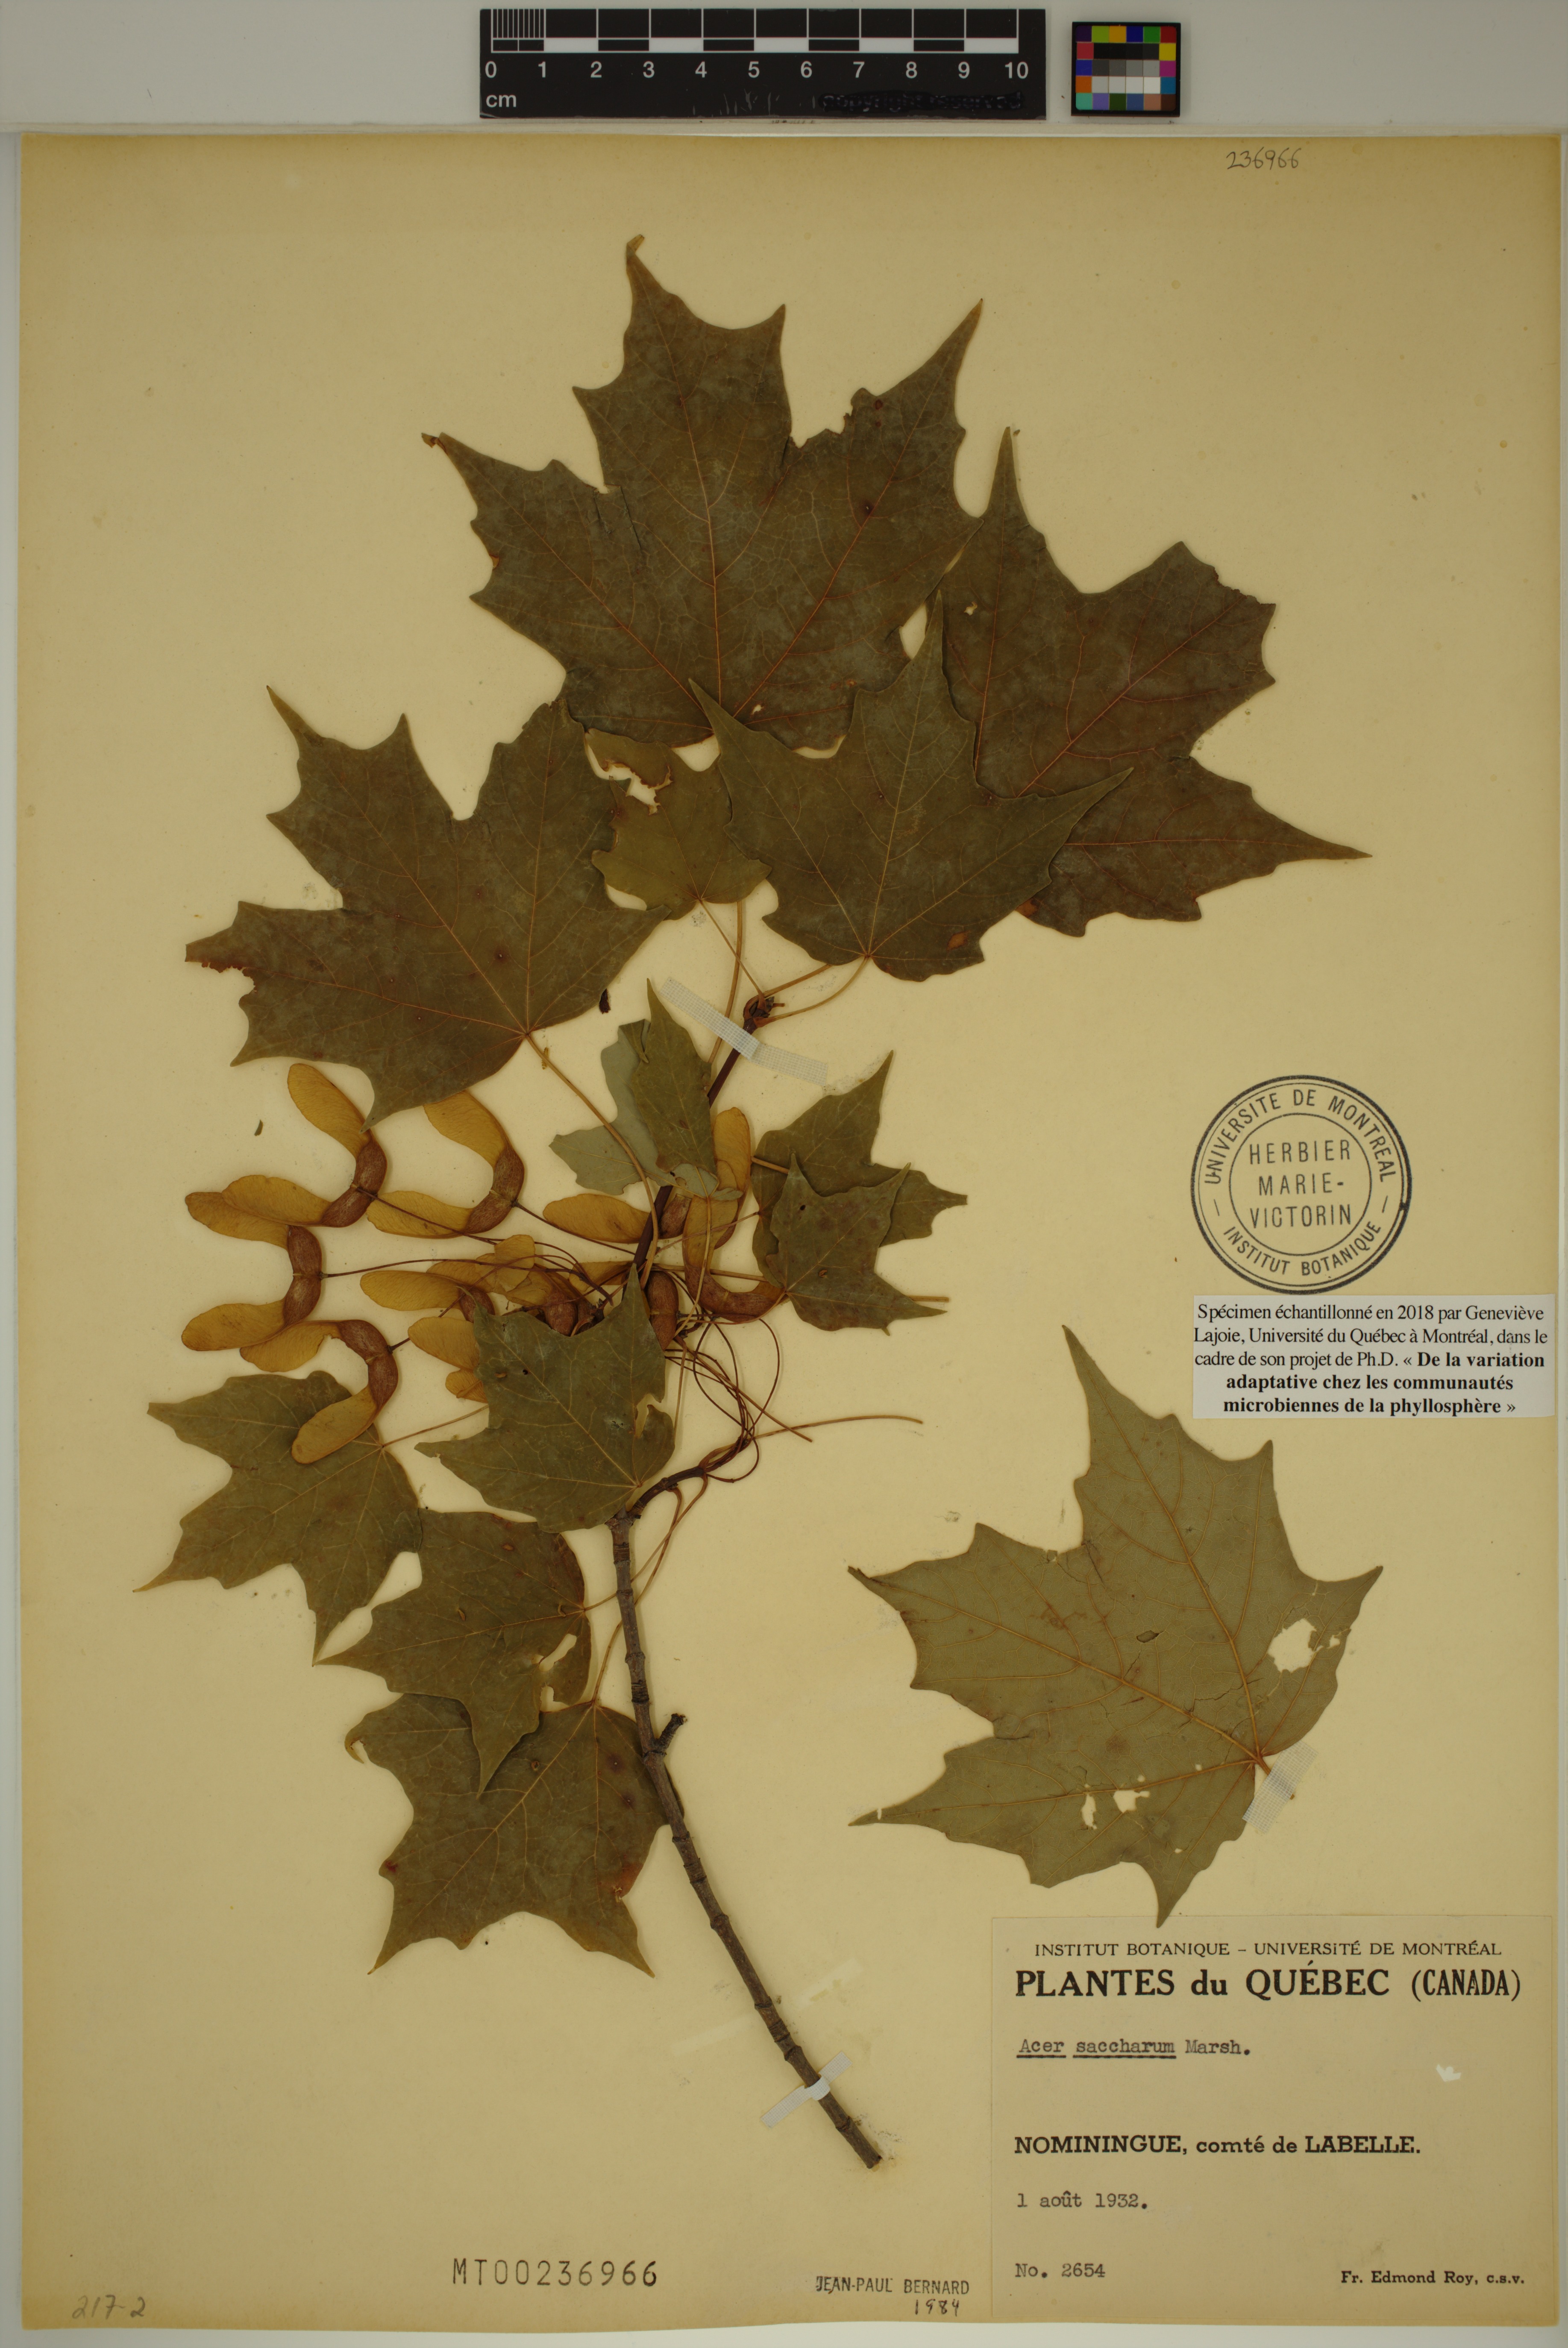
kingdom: Plantae
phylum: Tracheophyta
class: Magnoliopsida
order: Sapindales
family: Sapindaceae
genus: Acer
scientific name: Acer saccharum
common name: Sugar maple
